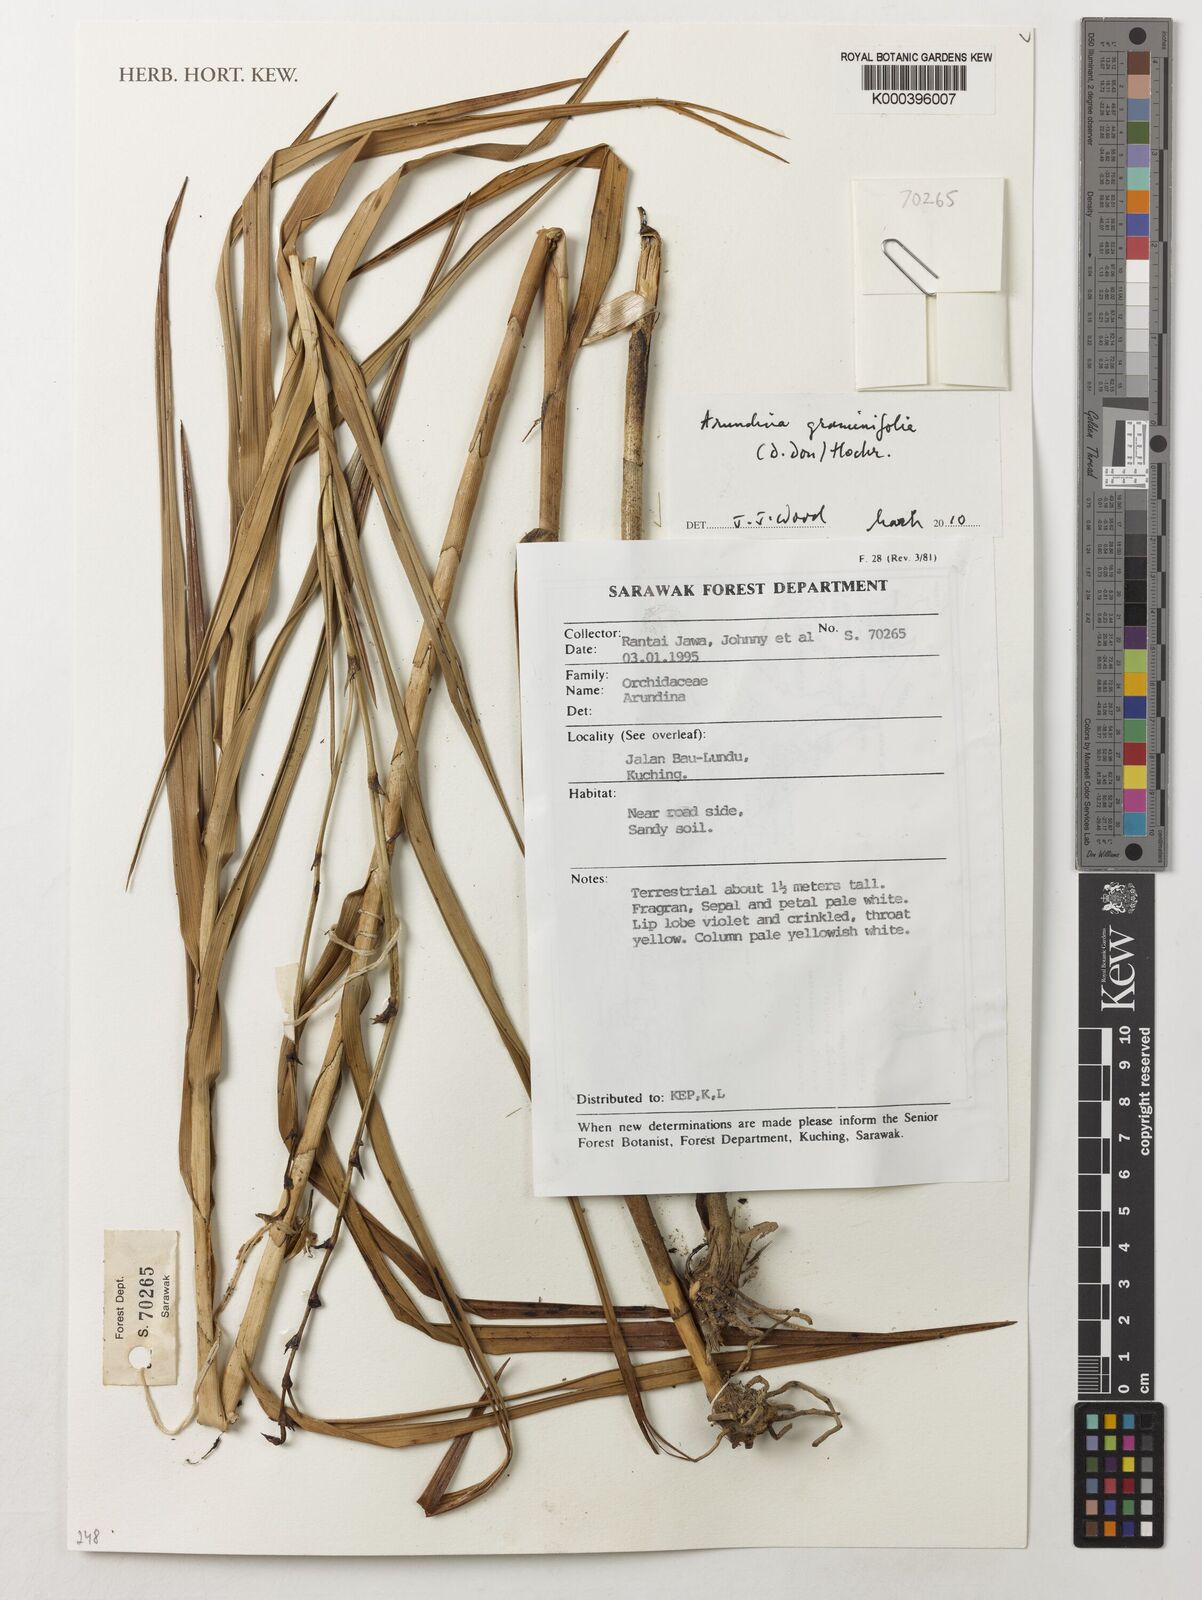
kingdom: Plantae
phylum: Tracheophyta
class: Liliopsida
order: Asparagales
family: Orchidaceae
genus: Arundina
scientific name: Arundina graminifolia
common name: Bamboo orchid
